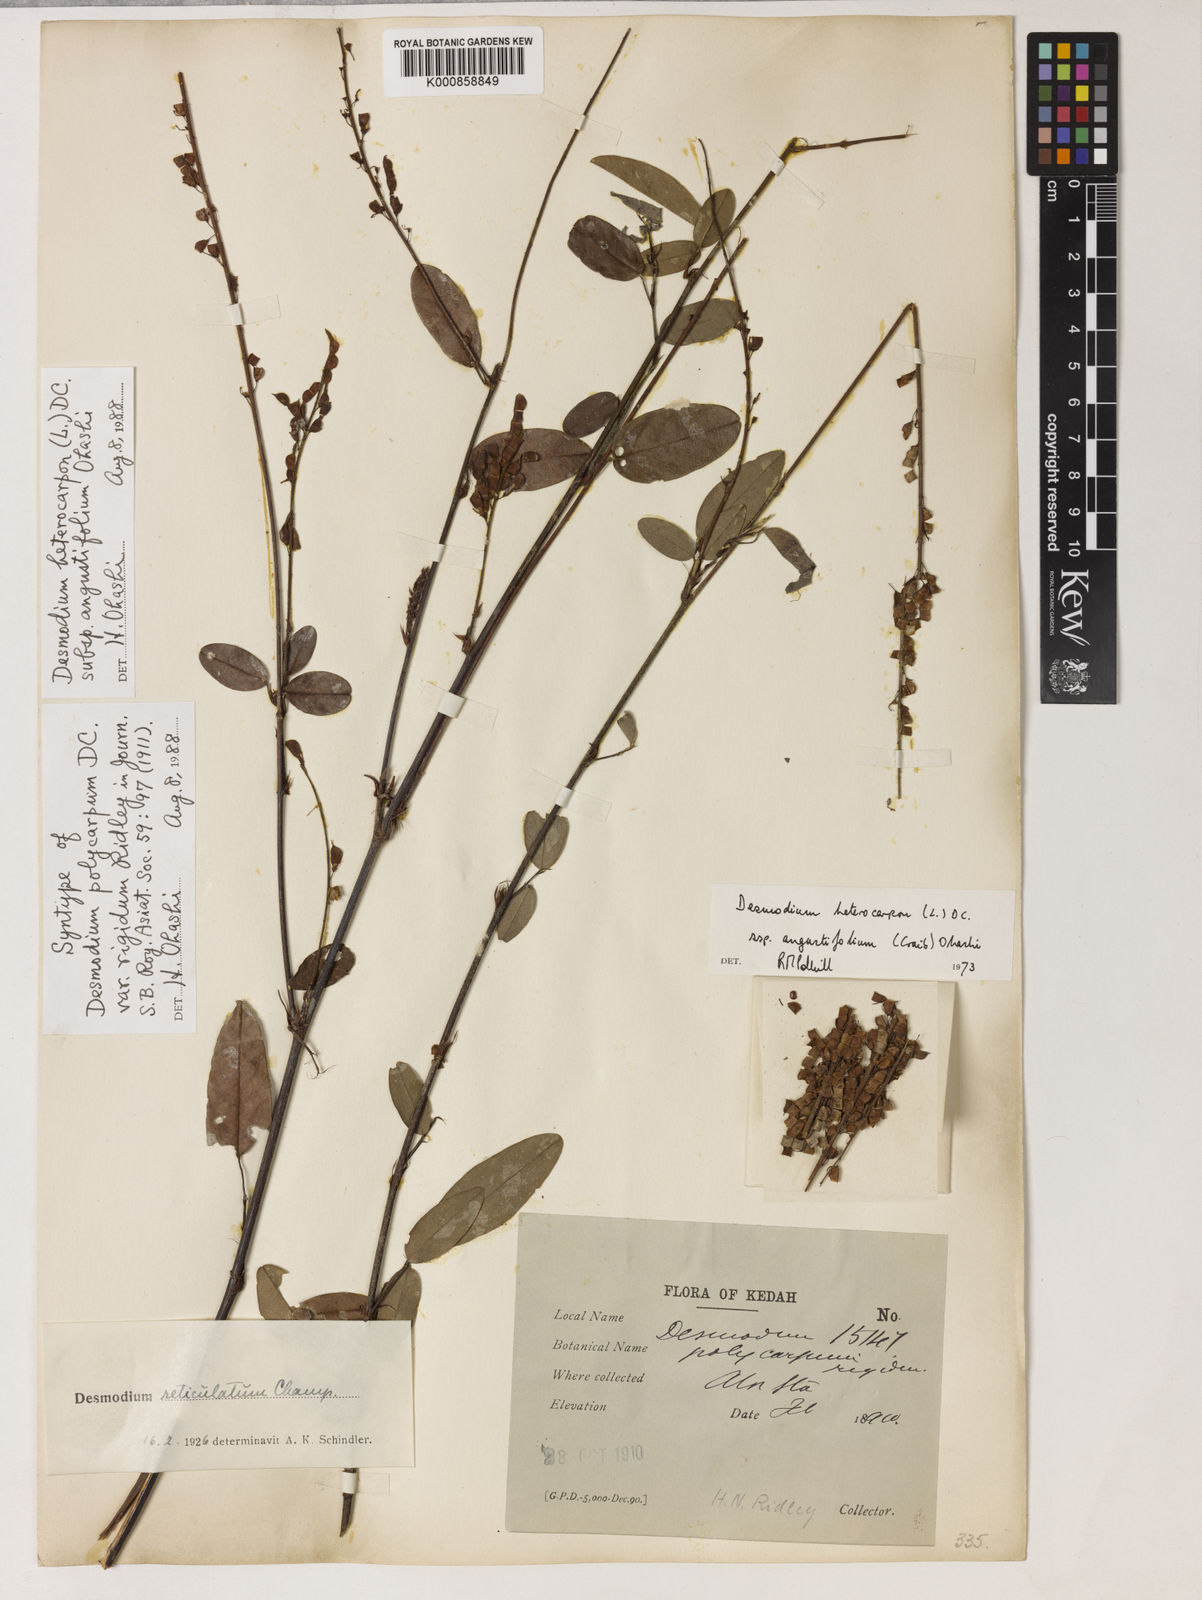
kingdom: Plantae
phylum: Tracheophyta
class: Magnoliopsida
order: Fabales
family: Fabaceae
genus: Grona
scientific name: Grona reticulata
